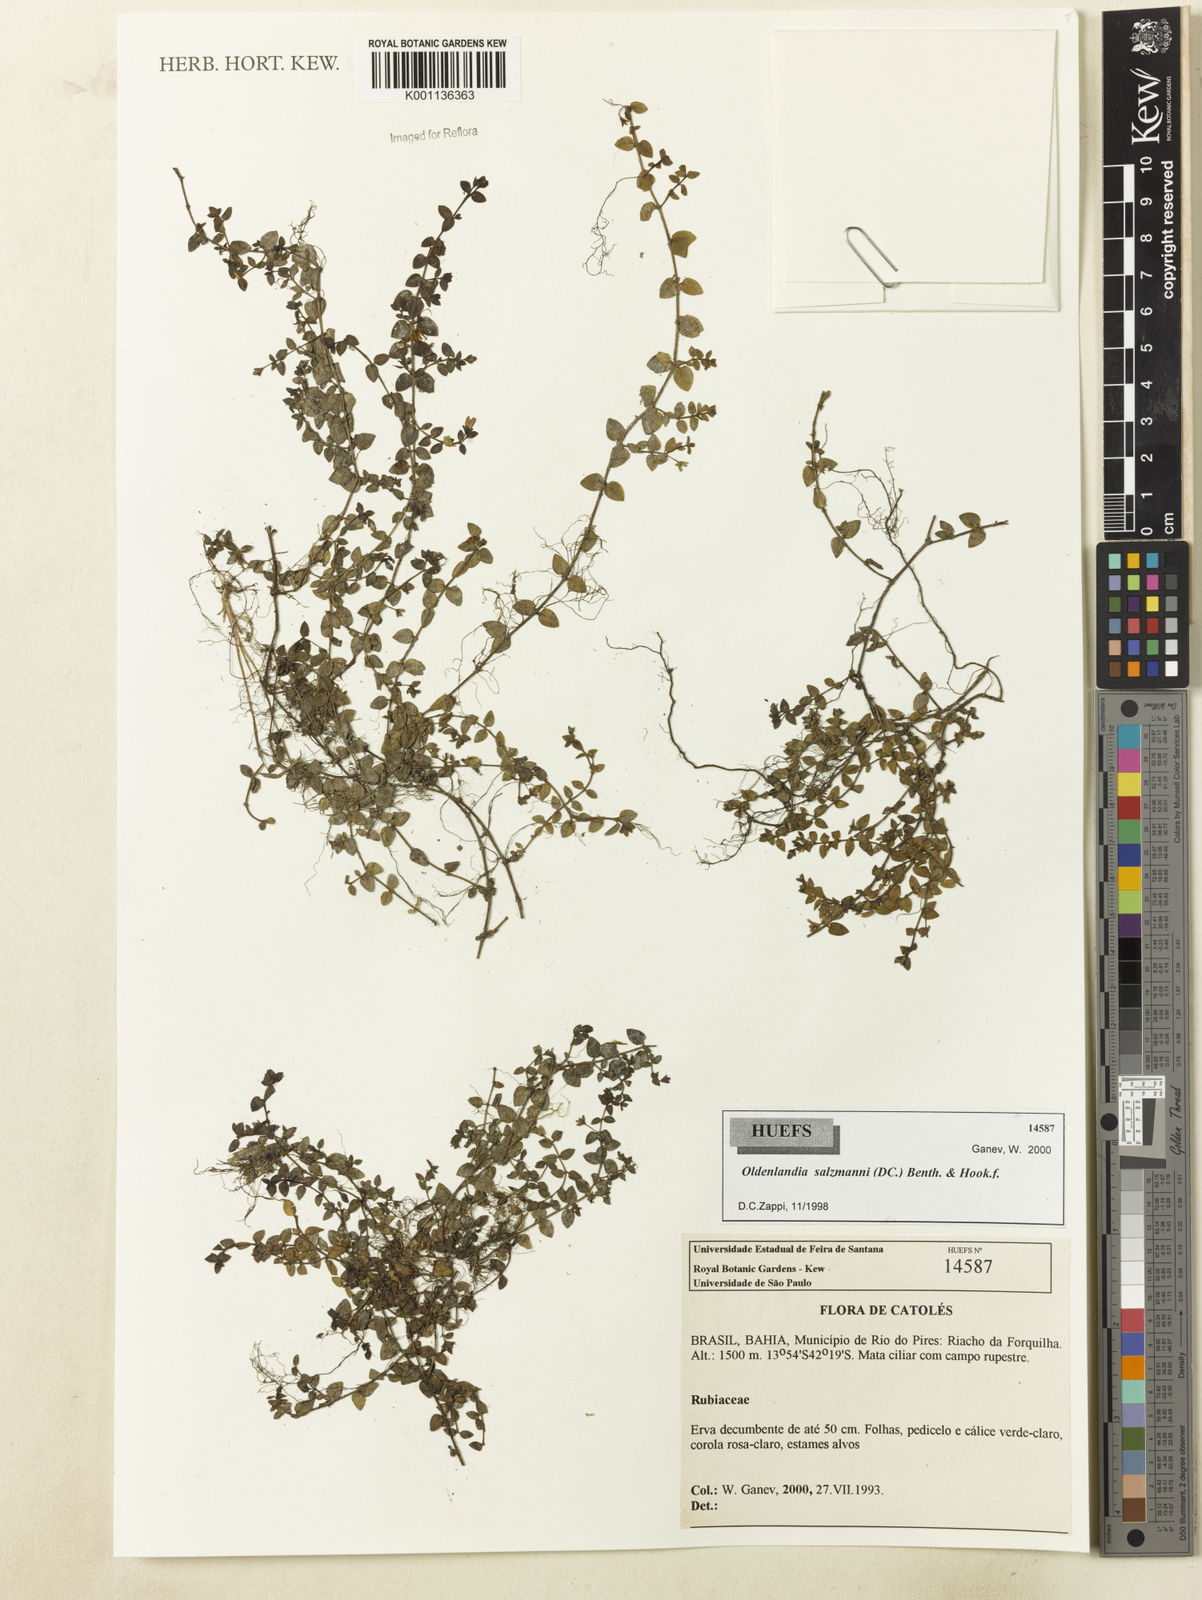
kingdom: Plantae
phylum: Tracheophyta
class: Magnoliopsida
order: Gentianales
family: Rubiaceae
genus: Oldenlandia
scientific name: Oldenlandia salzmannii
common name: Salzmann's mille graines
